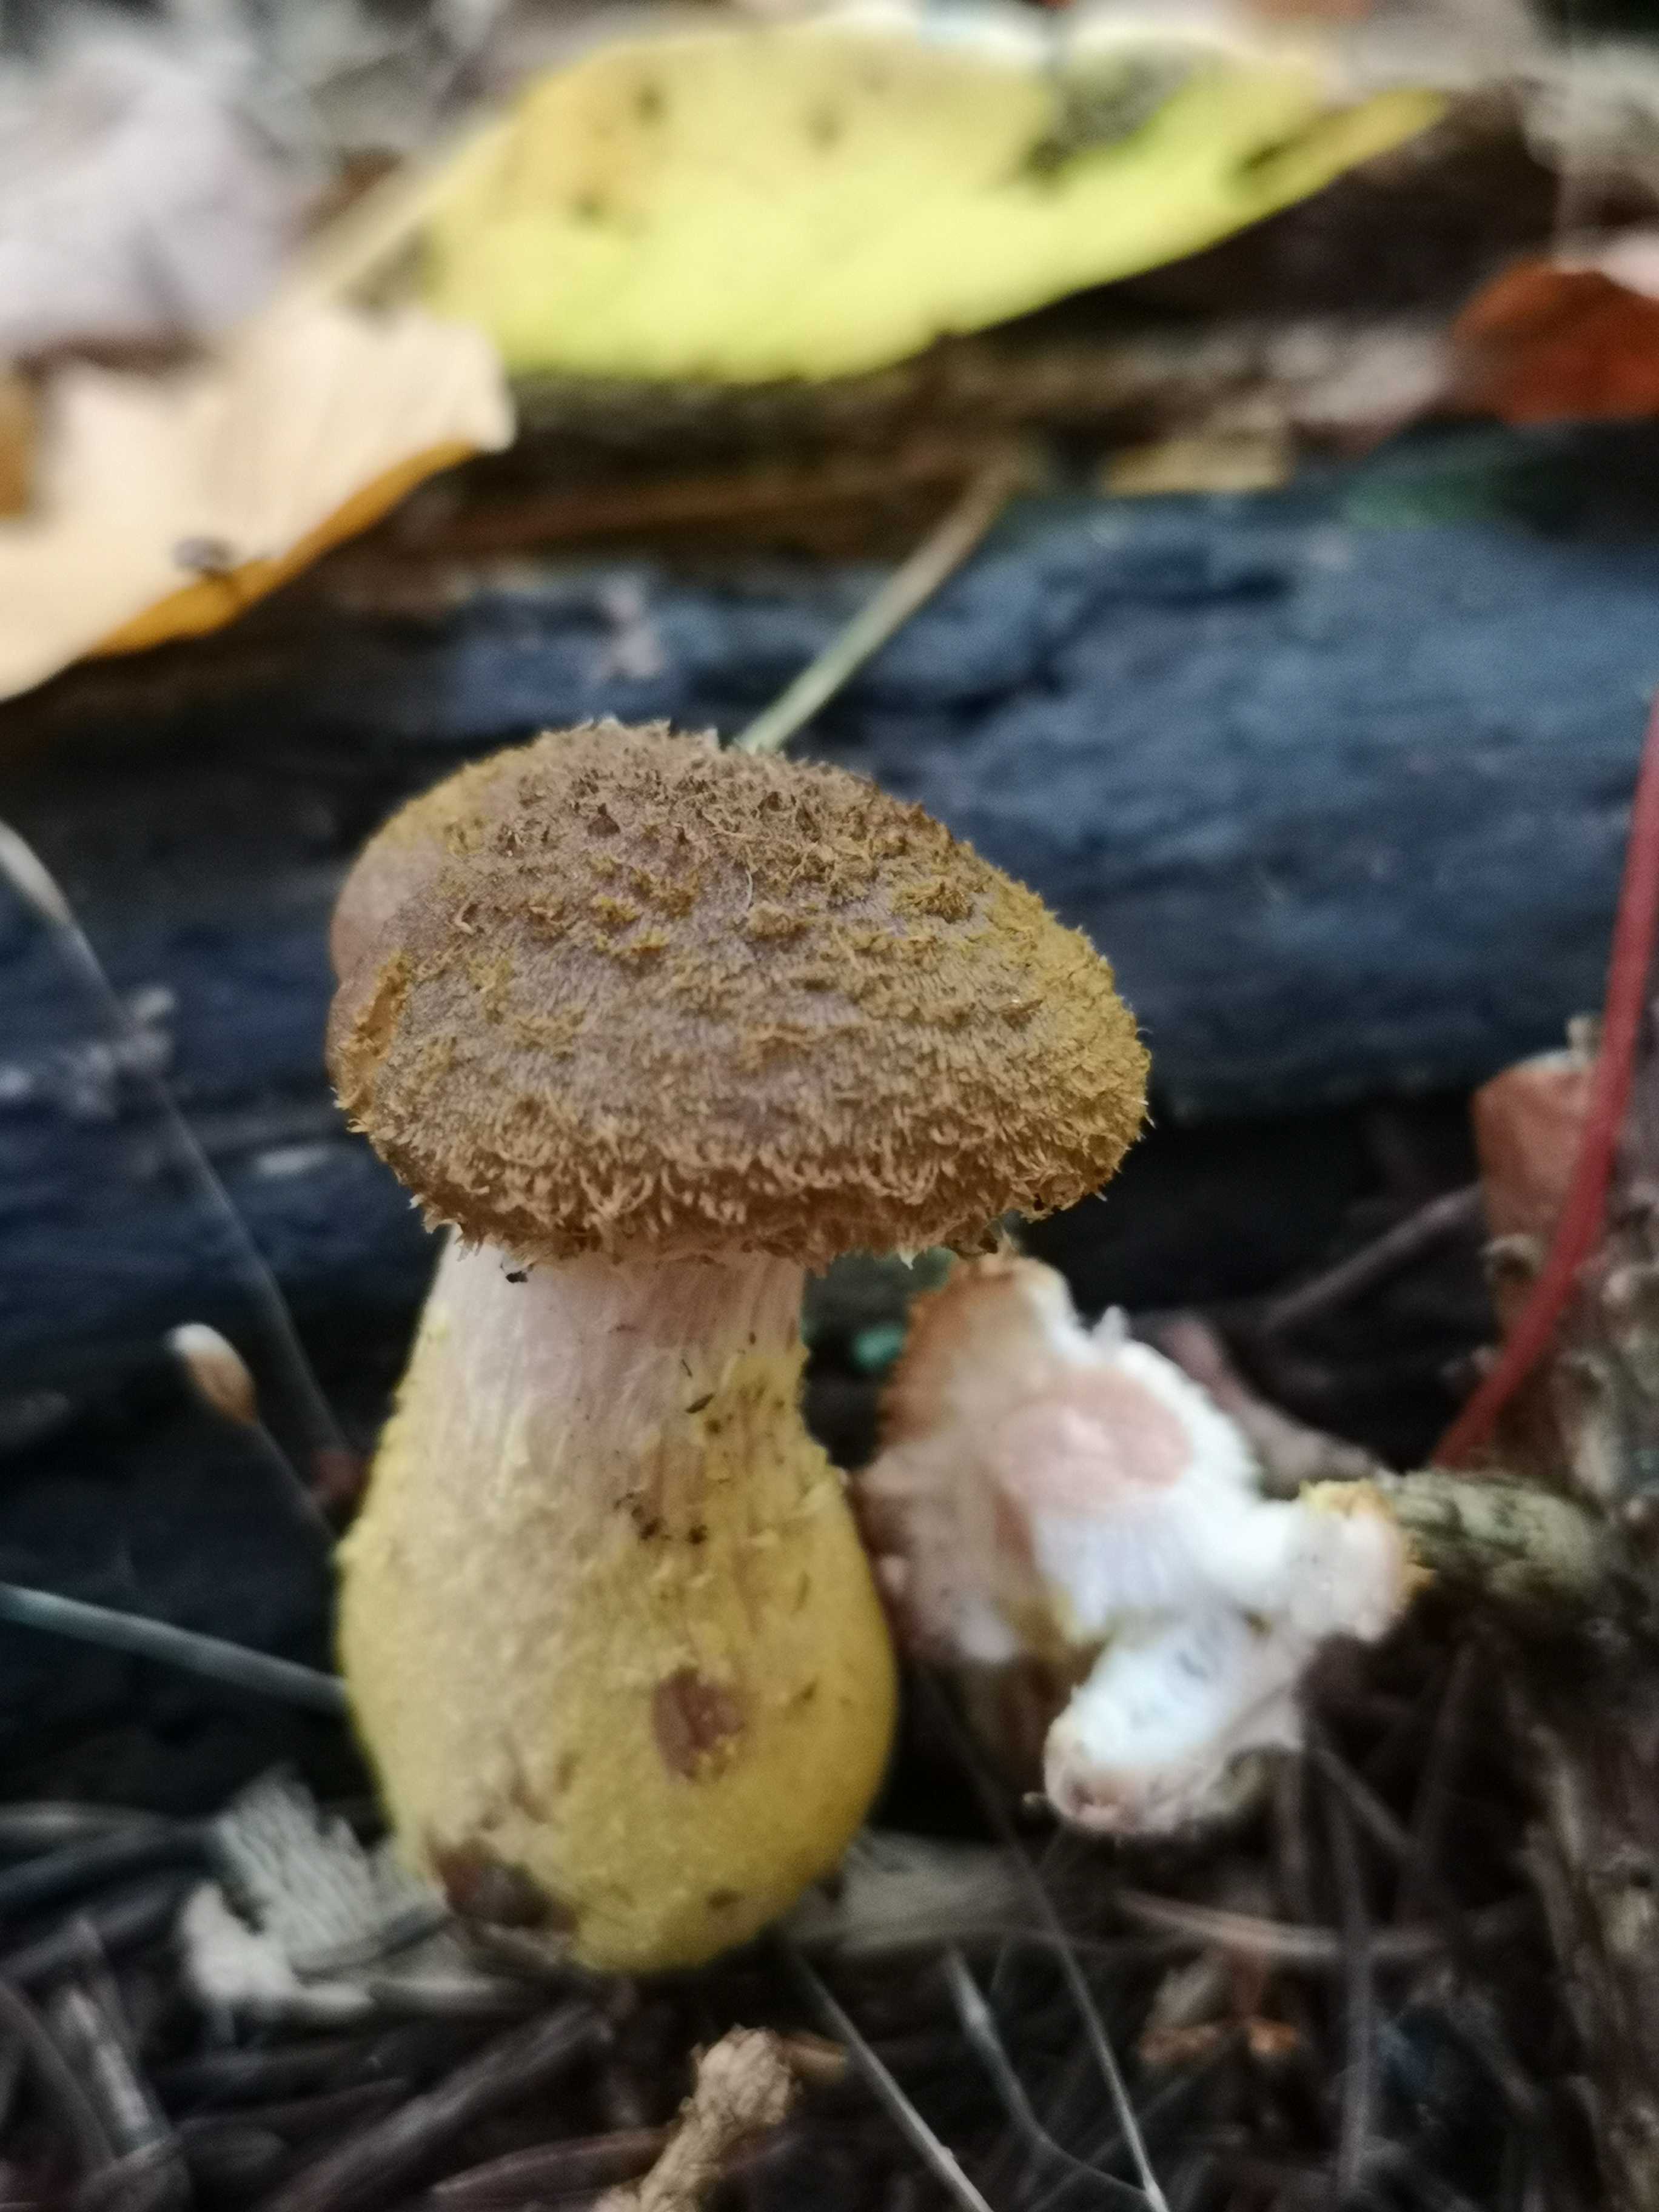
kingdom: Fungi
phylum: Basidiomycota
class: Agaricomycetes
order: Agaricales
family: Physalacriaceae
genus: Armillaria
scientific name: Armillaria lutea
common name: køllestokket honningsvamp
